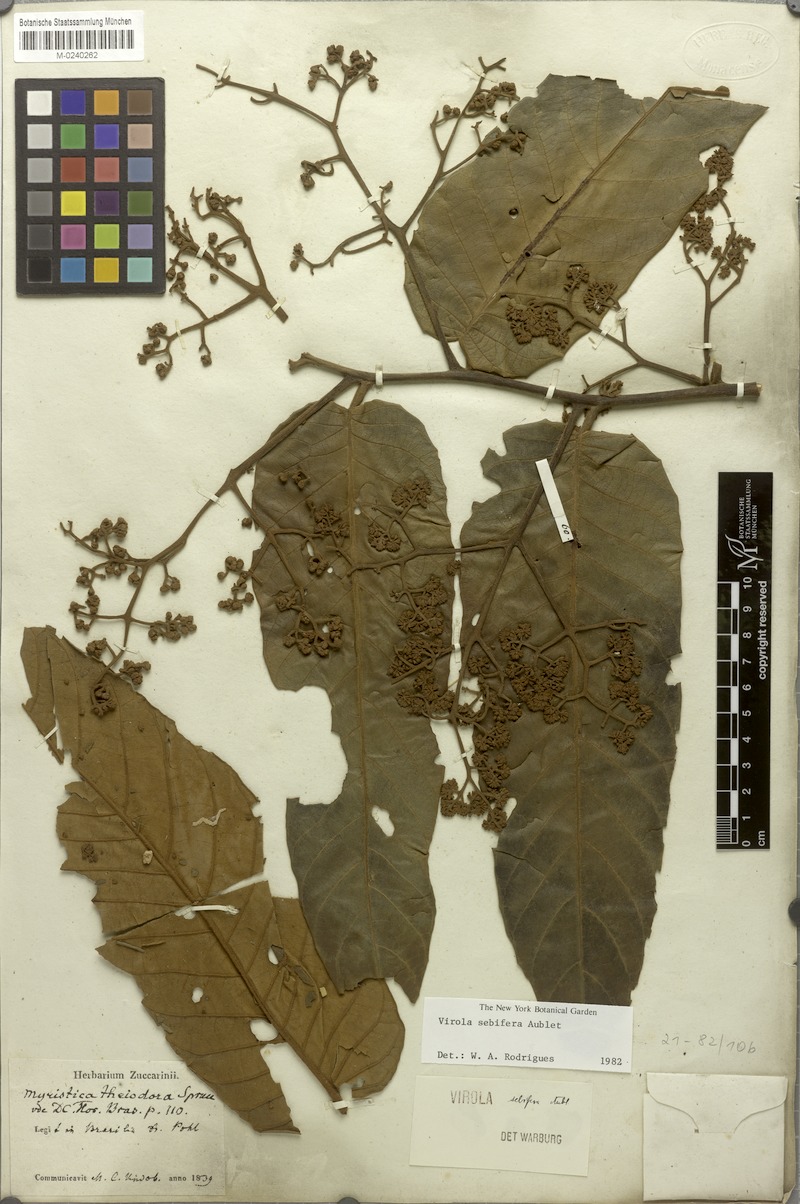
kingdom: Plantae
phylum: Tracheophyta
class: Magnoliopsida
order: Magnoliales
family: Myristicaceae
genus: Virola
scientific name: Virola sebifera
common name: Red ucuuba
